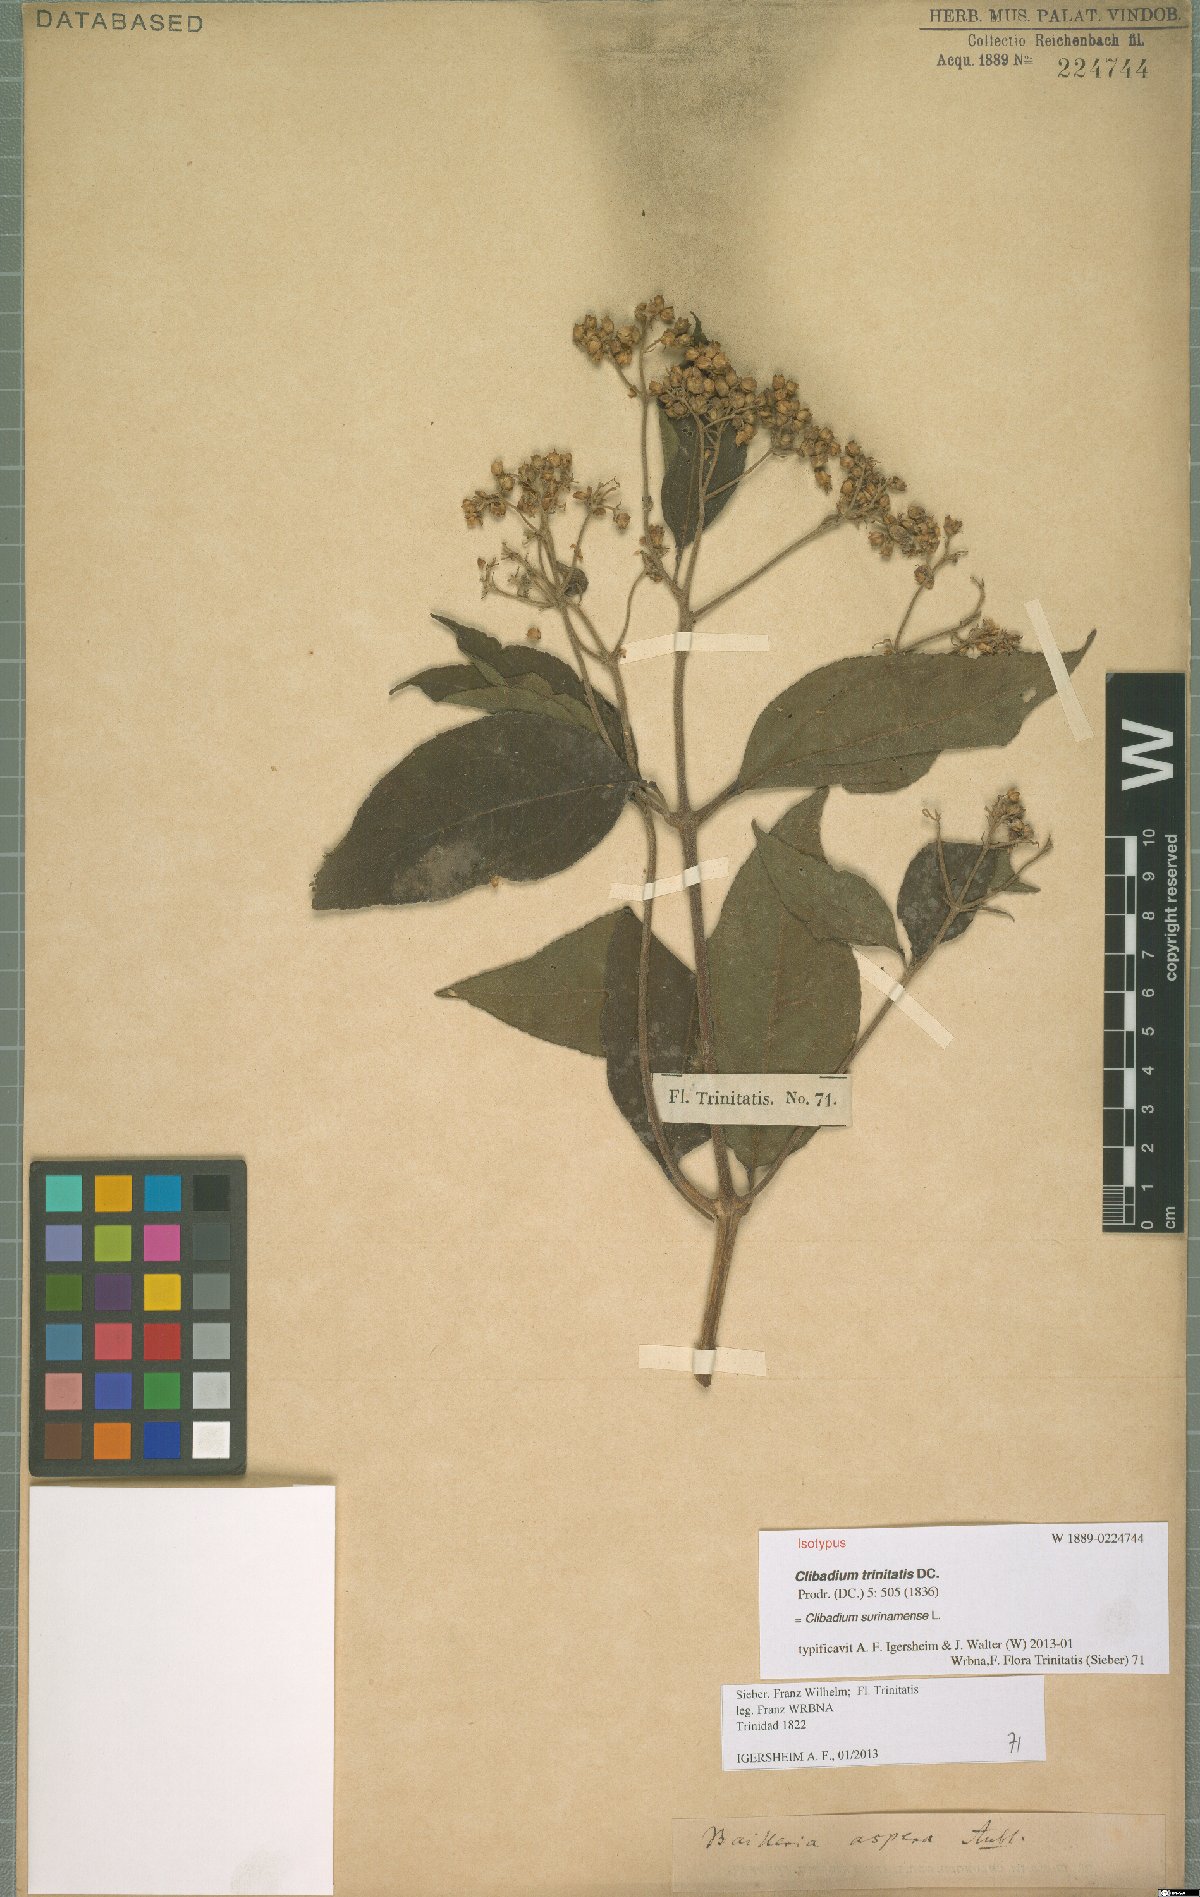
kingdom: Plantae
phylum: Tracheophyta
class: Magnoliopsida
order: Asterales
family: Asteraceae
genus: Clibadium
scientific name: Clibadium surinamense
